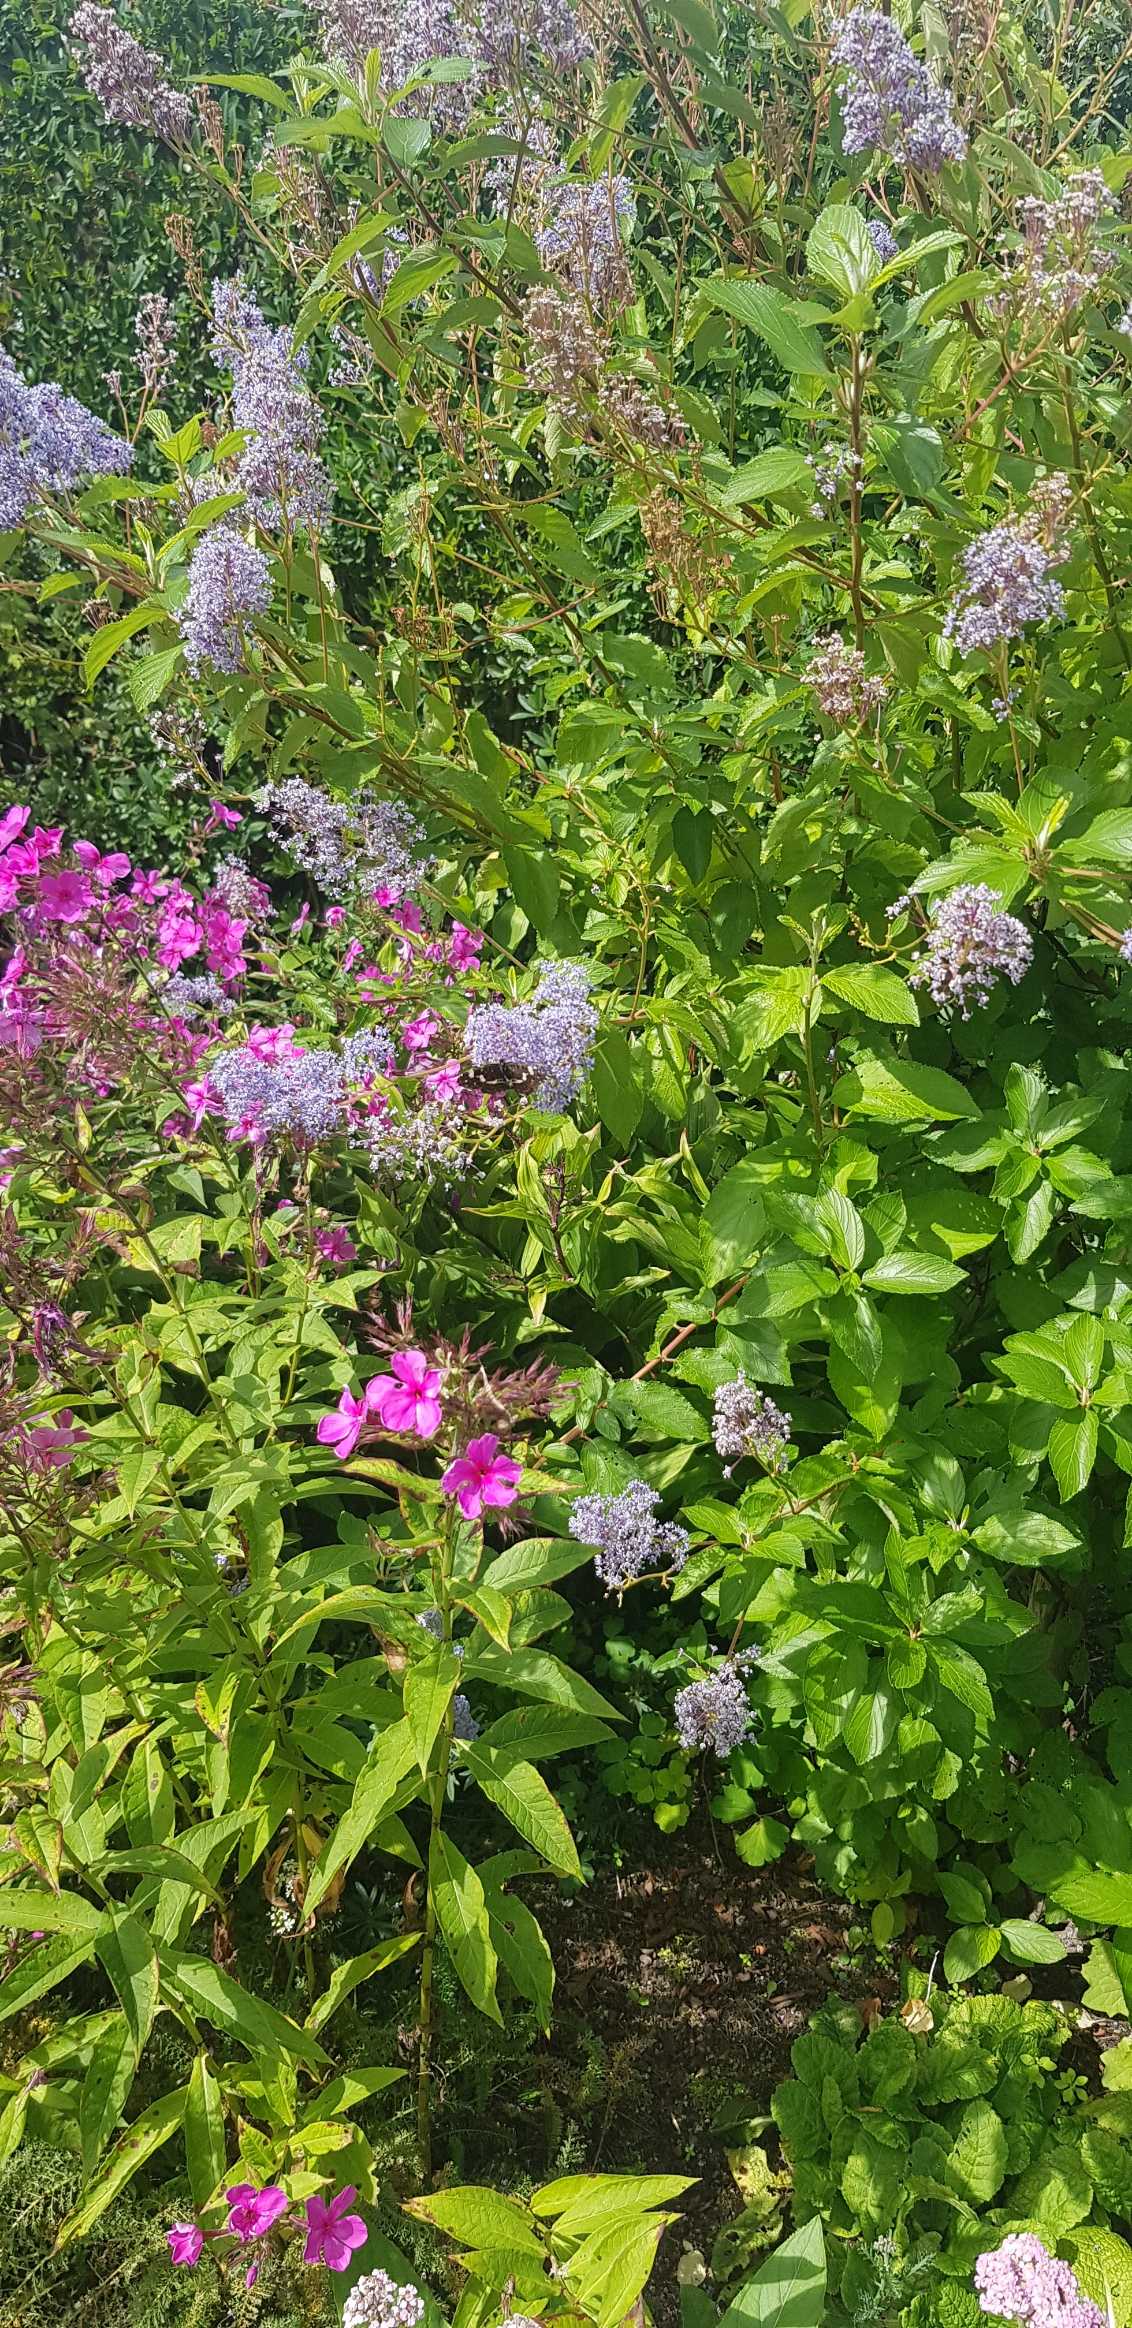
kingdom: Animalia
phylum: Arthropoda
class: Insecta
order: Lepidoptera
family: Nymphalidae
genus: Araschnia
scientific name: Araschnia levana
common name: Nældesommerfugl
